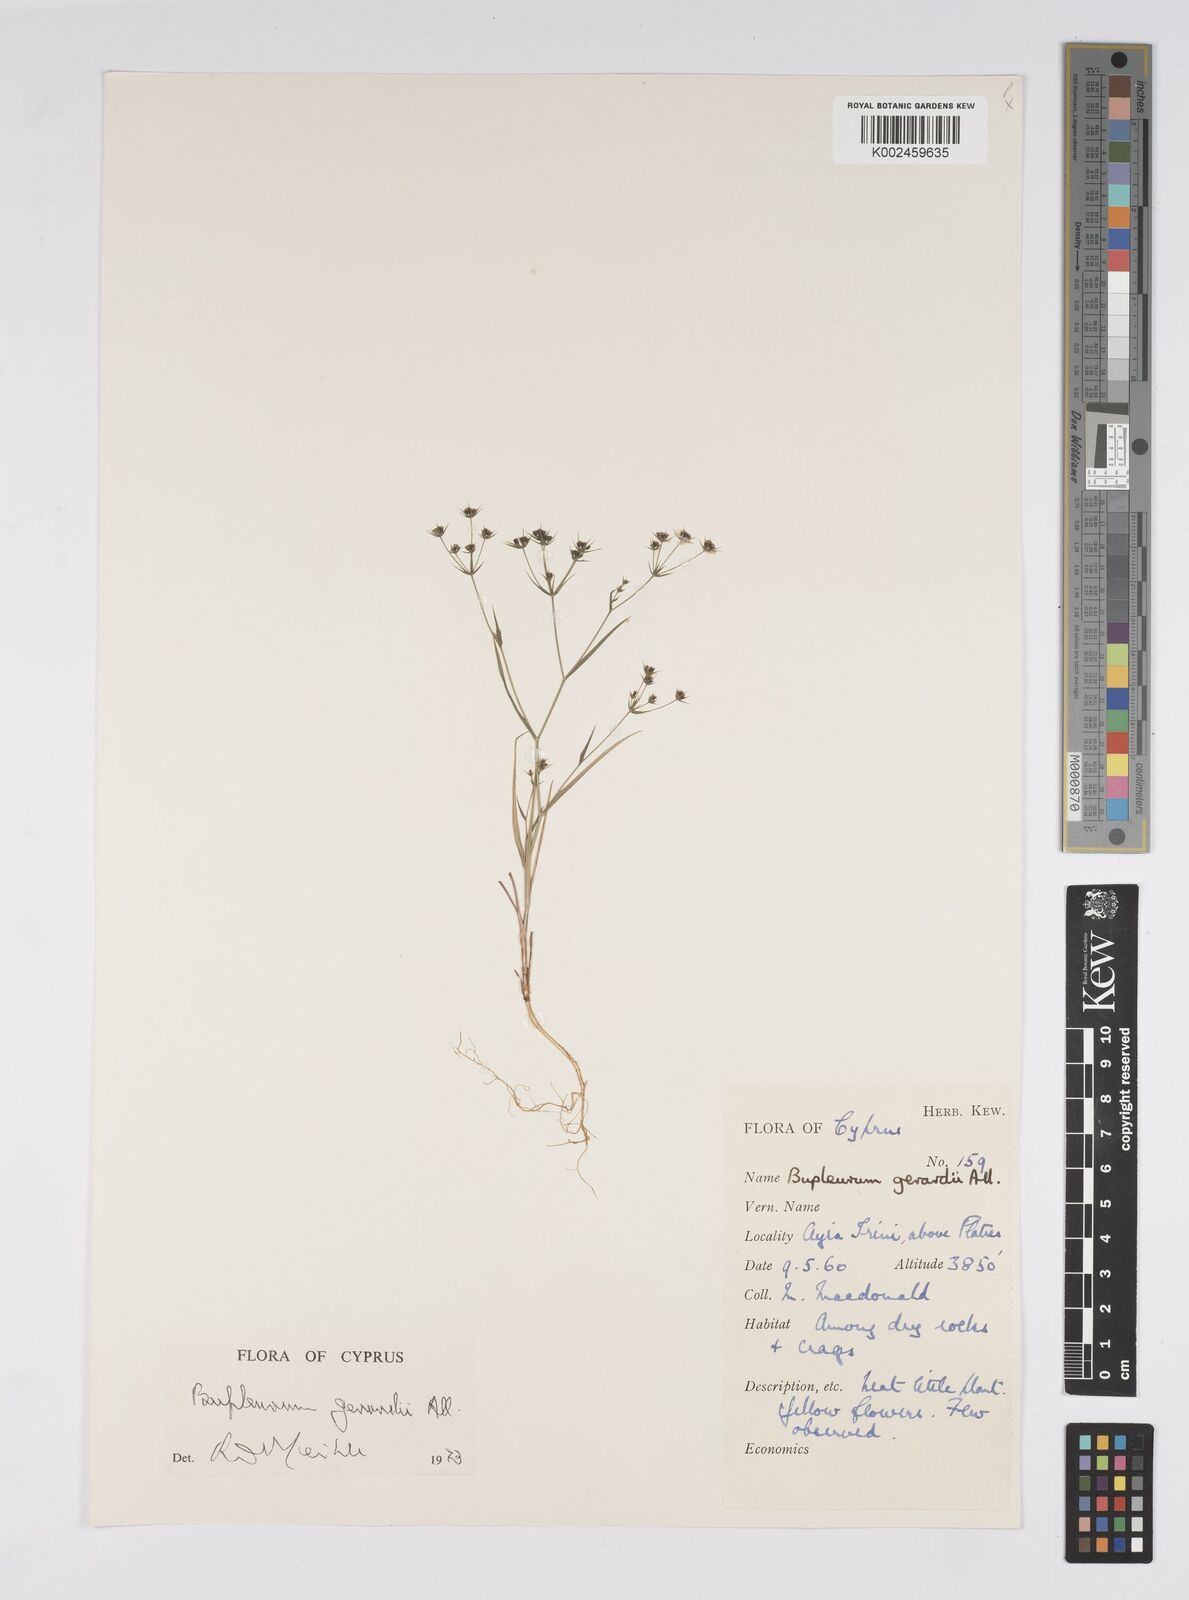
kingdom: Plantae
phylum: Tracheophyta
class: Magnoliopsida
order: Apiales
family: Apiaceae
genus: Bupleurum
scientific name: Bupleurum gerardi
